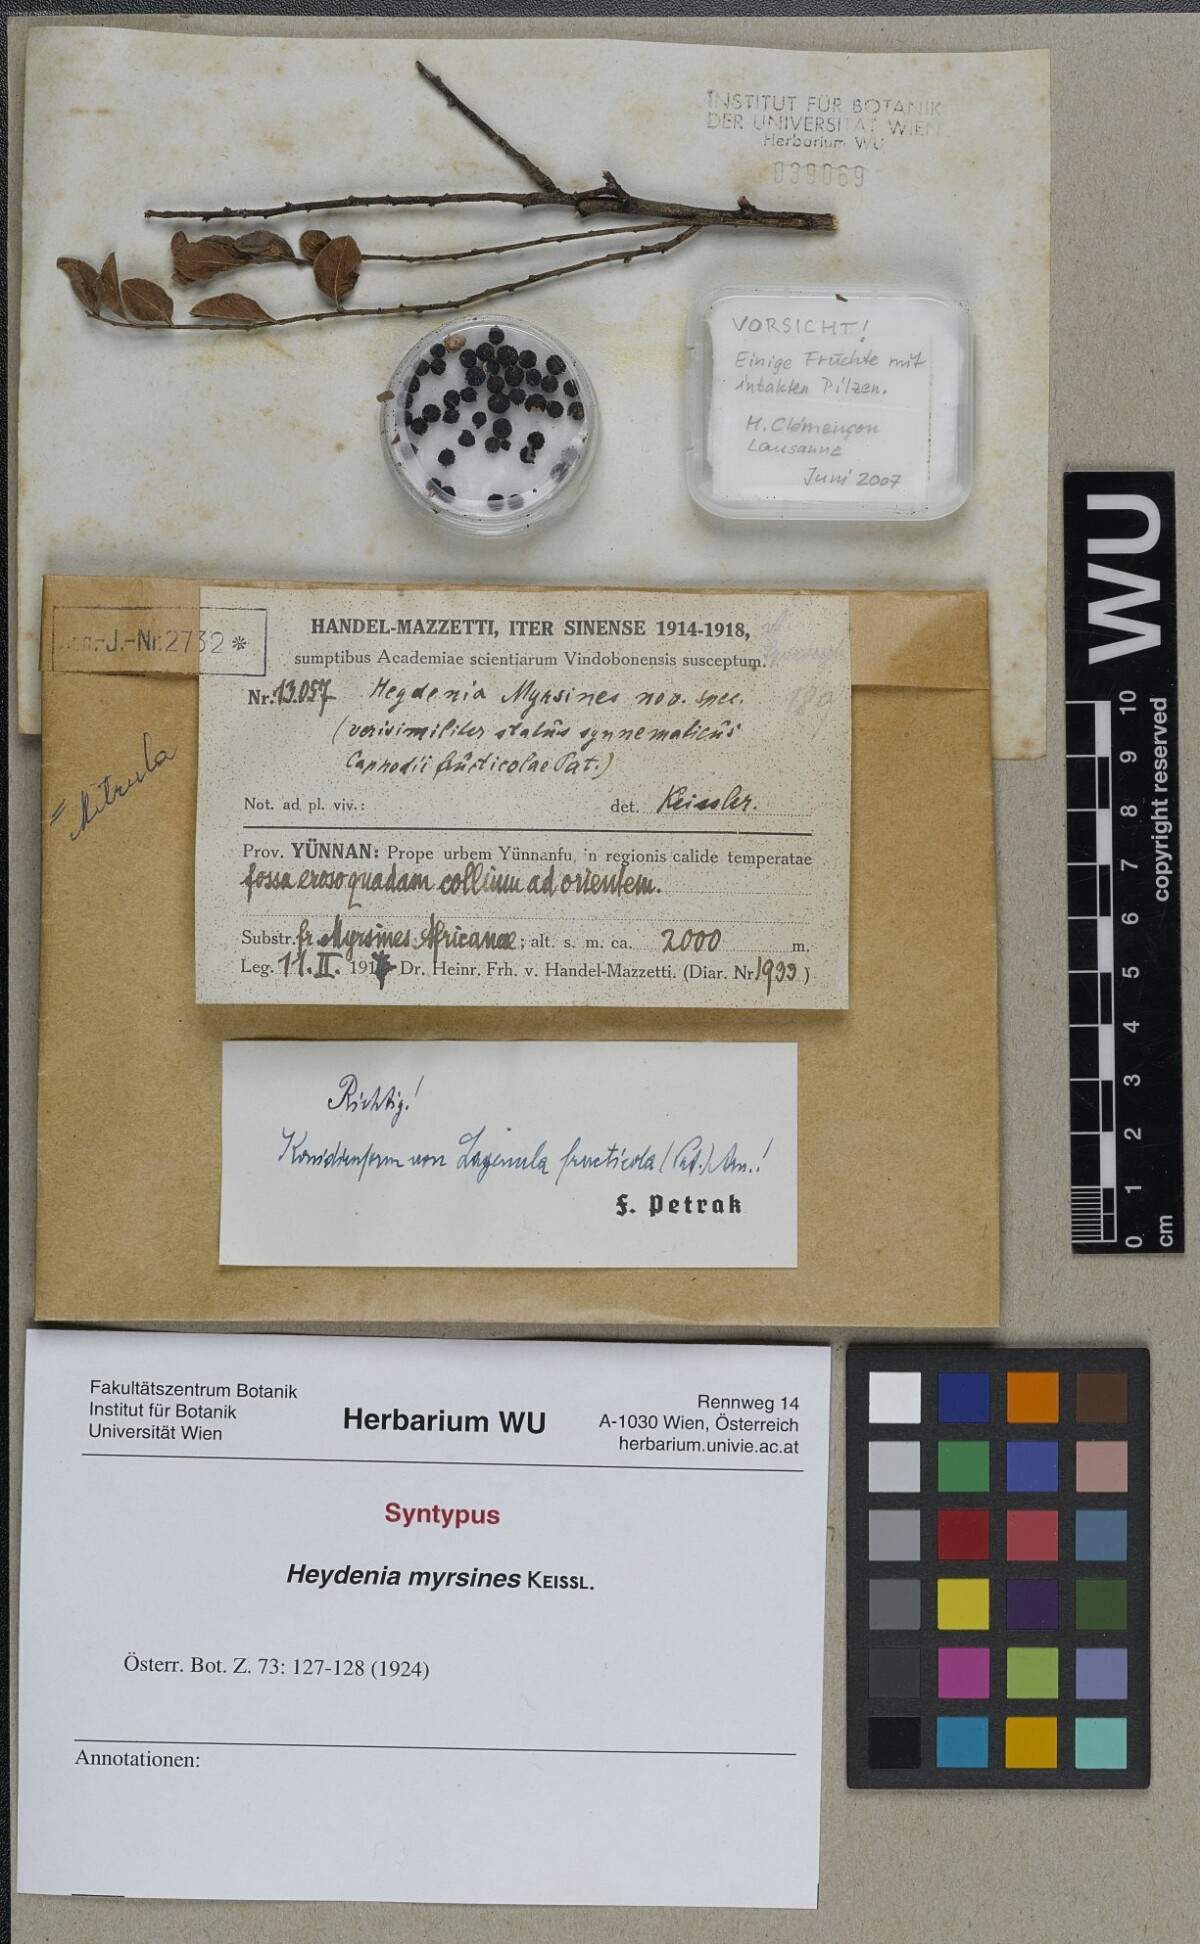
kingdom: Fungi
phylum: Ascomycota
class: Pezizomycetes
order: Pezizales
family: Pyronemataceae
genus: Heydenia
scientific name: Heydenia myrsines
